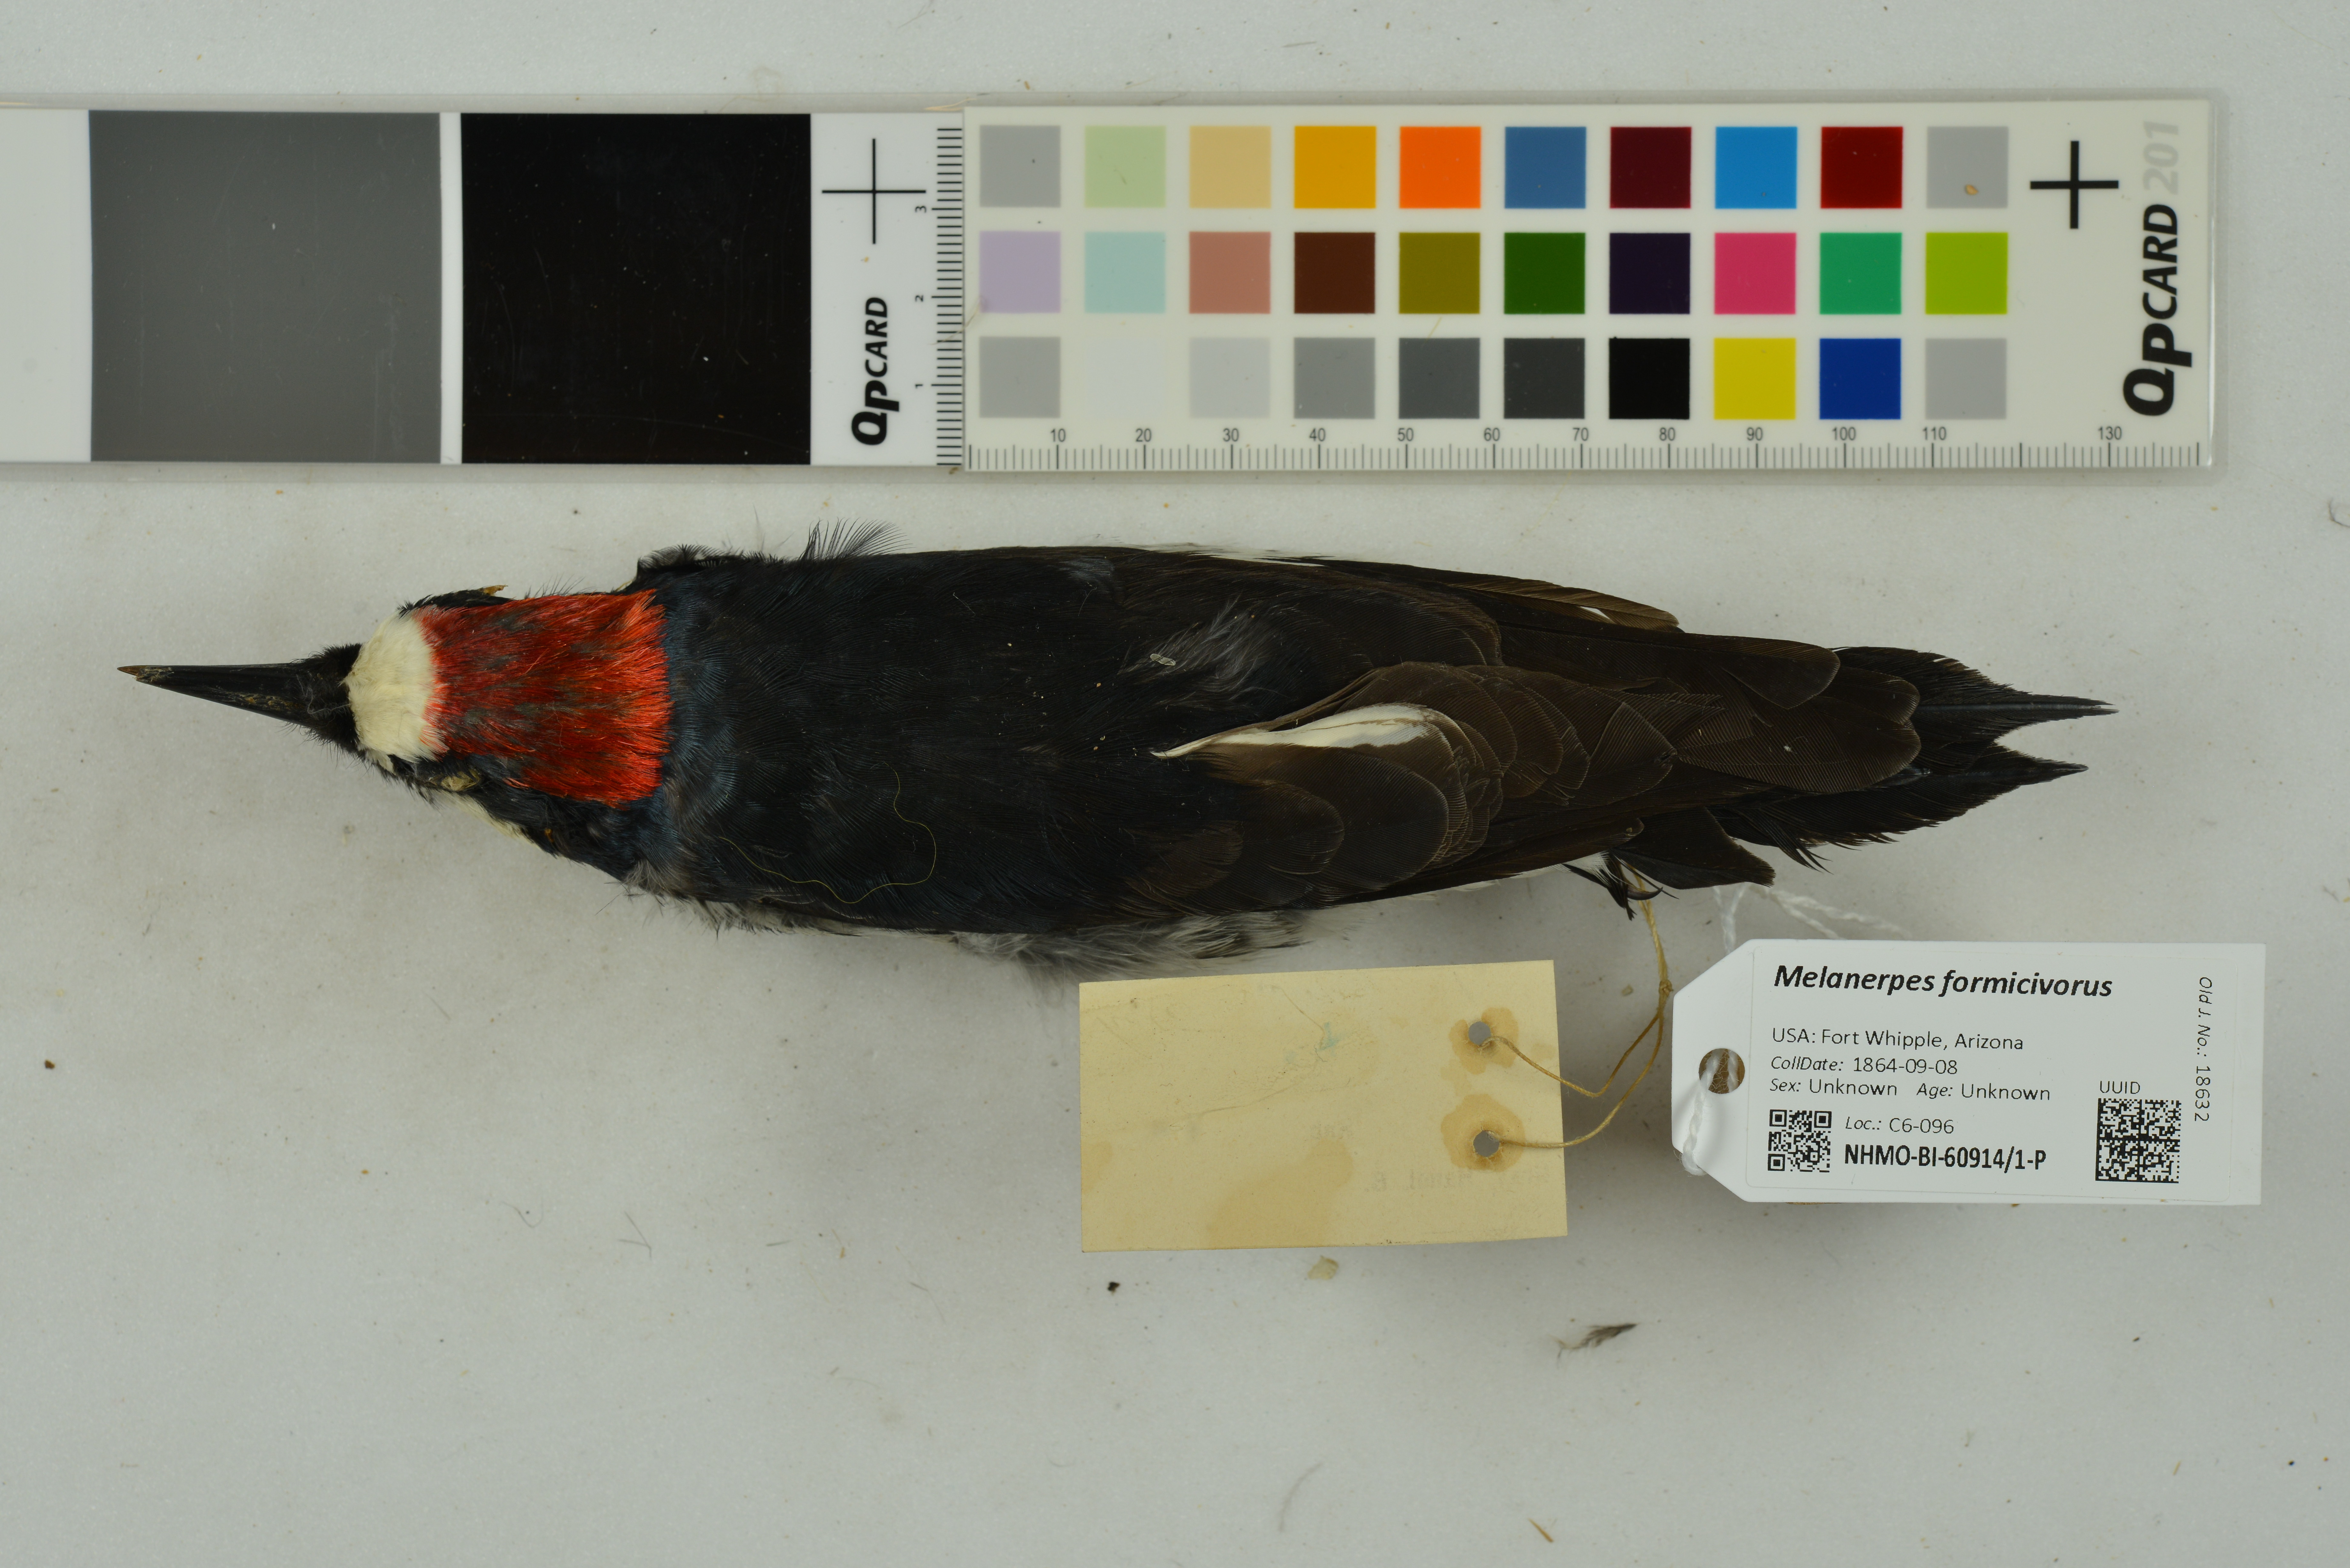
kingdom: Animalia
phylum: Chordata
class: Aves
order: Piciformes
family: Picidae
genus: Melanerpes
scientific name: Melanerpes formicivorus
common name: Acorn woodpecker
